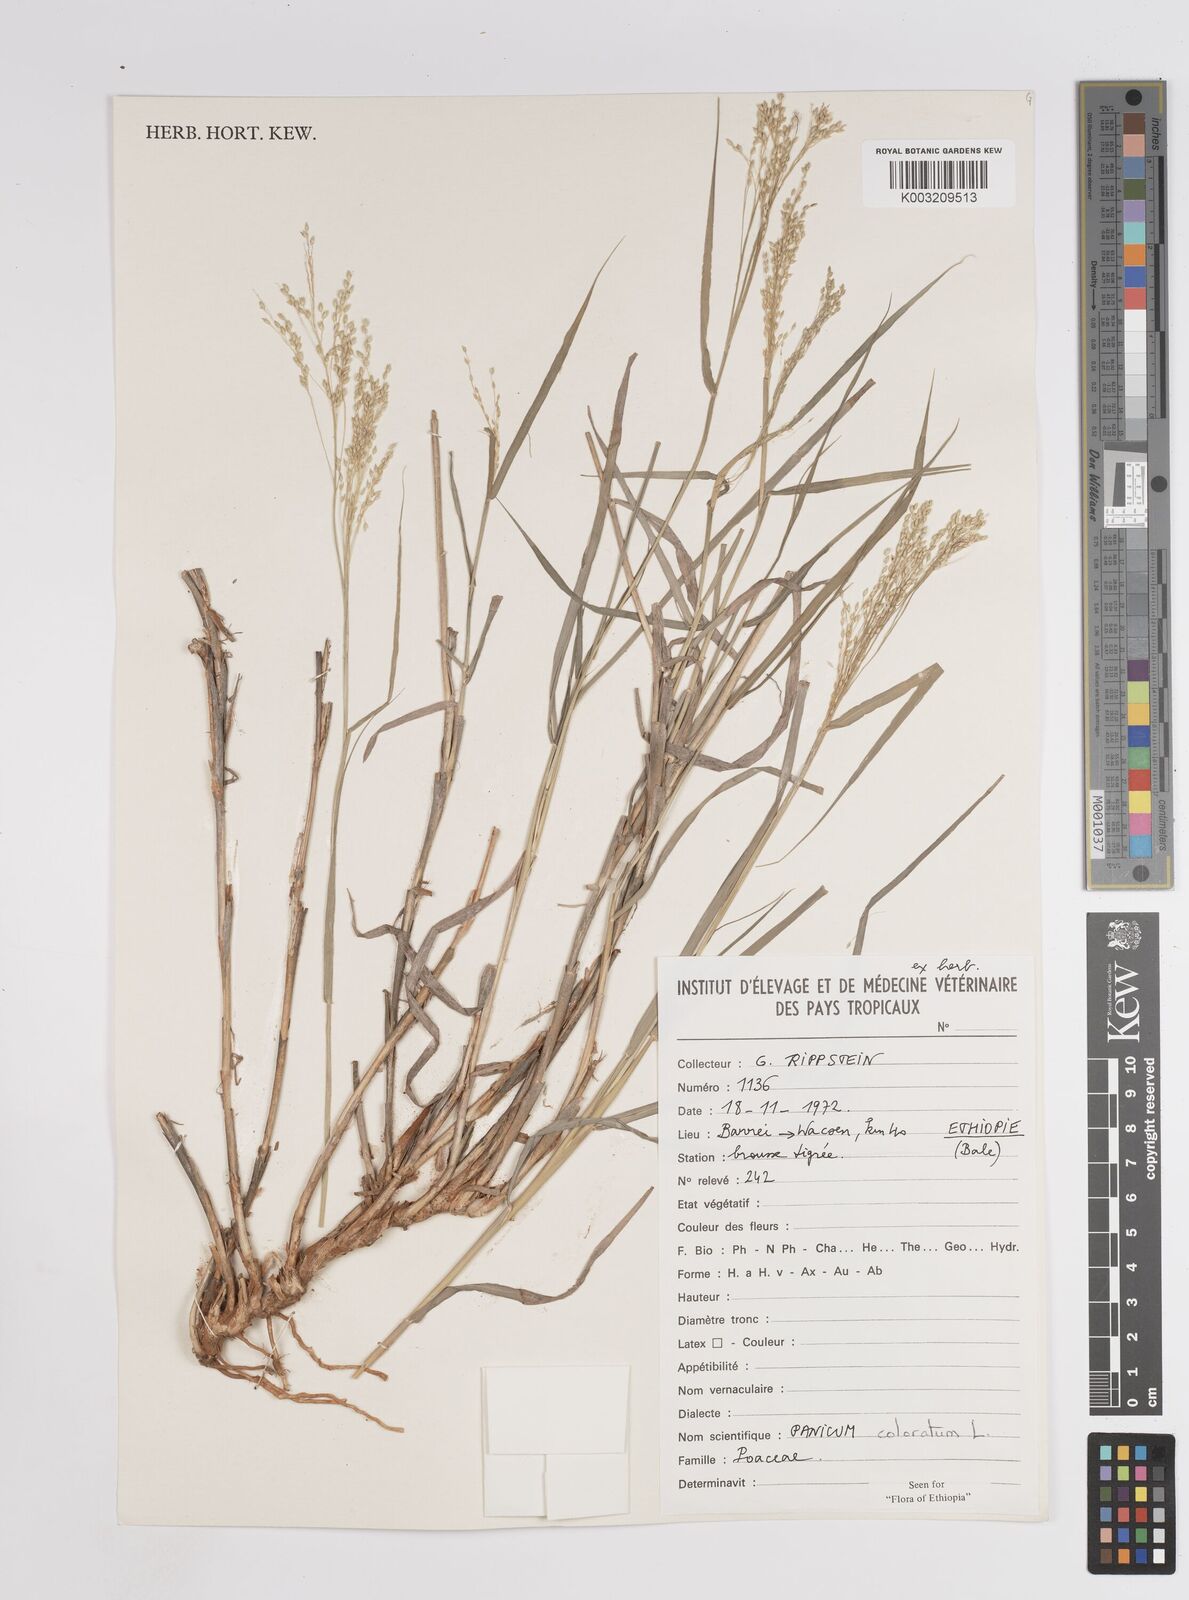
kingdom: Plantae
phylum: Tracheophyta
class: Liliopsida
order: Poales
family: Poaceae
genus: Tricholaena
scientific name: Tricholaena monachne
